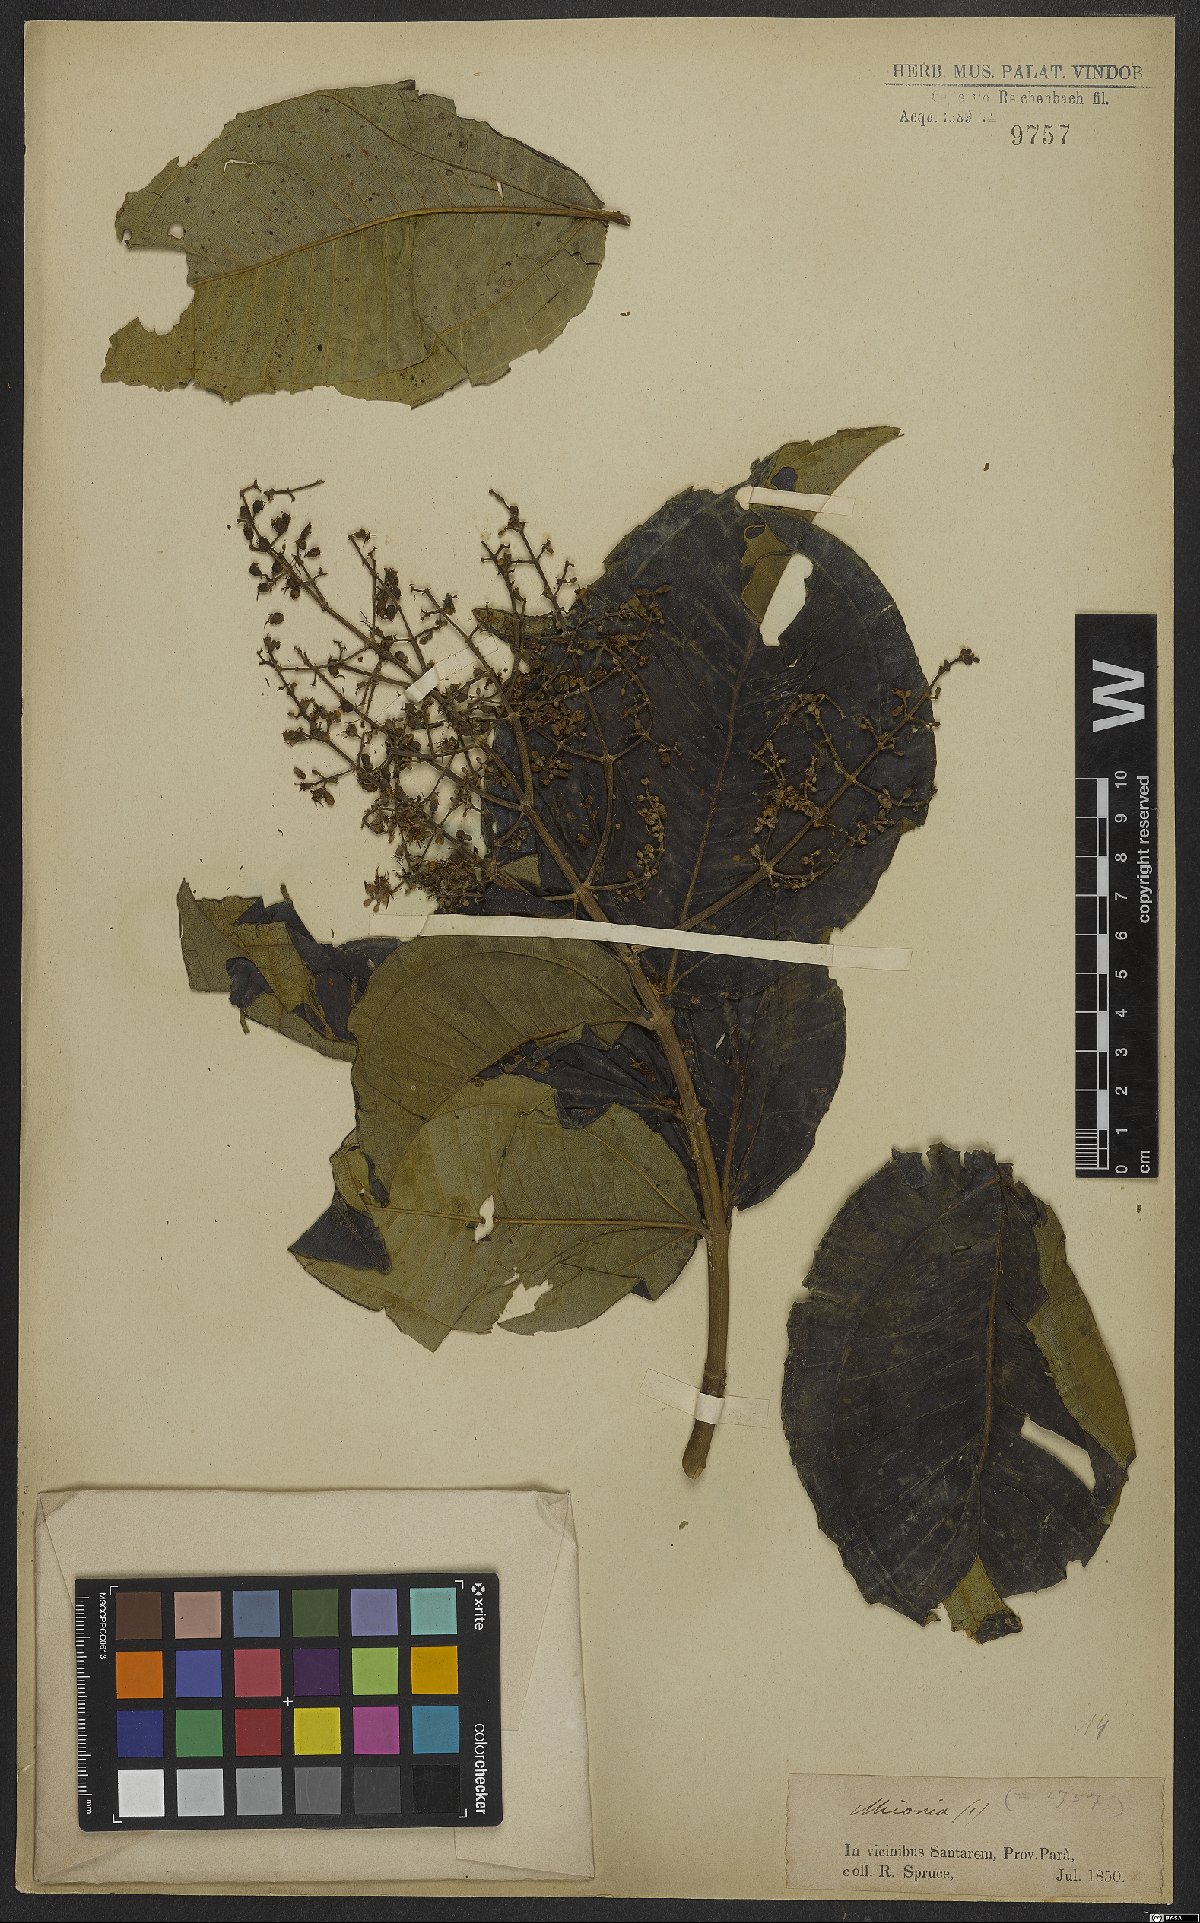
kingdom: Plantae
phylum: Tracheophyta
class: Magnoliopsida
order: Myrtales
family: Melastomataceae
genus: Miconia
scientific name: Miconia
